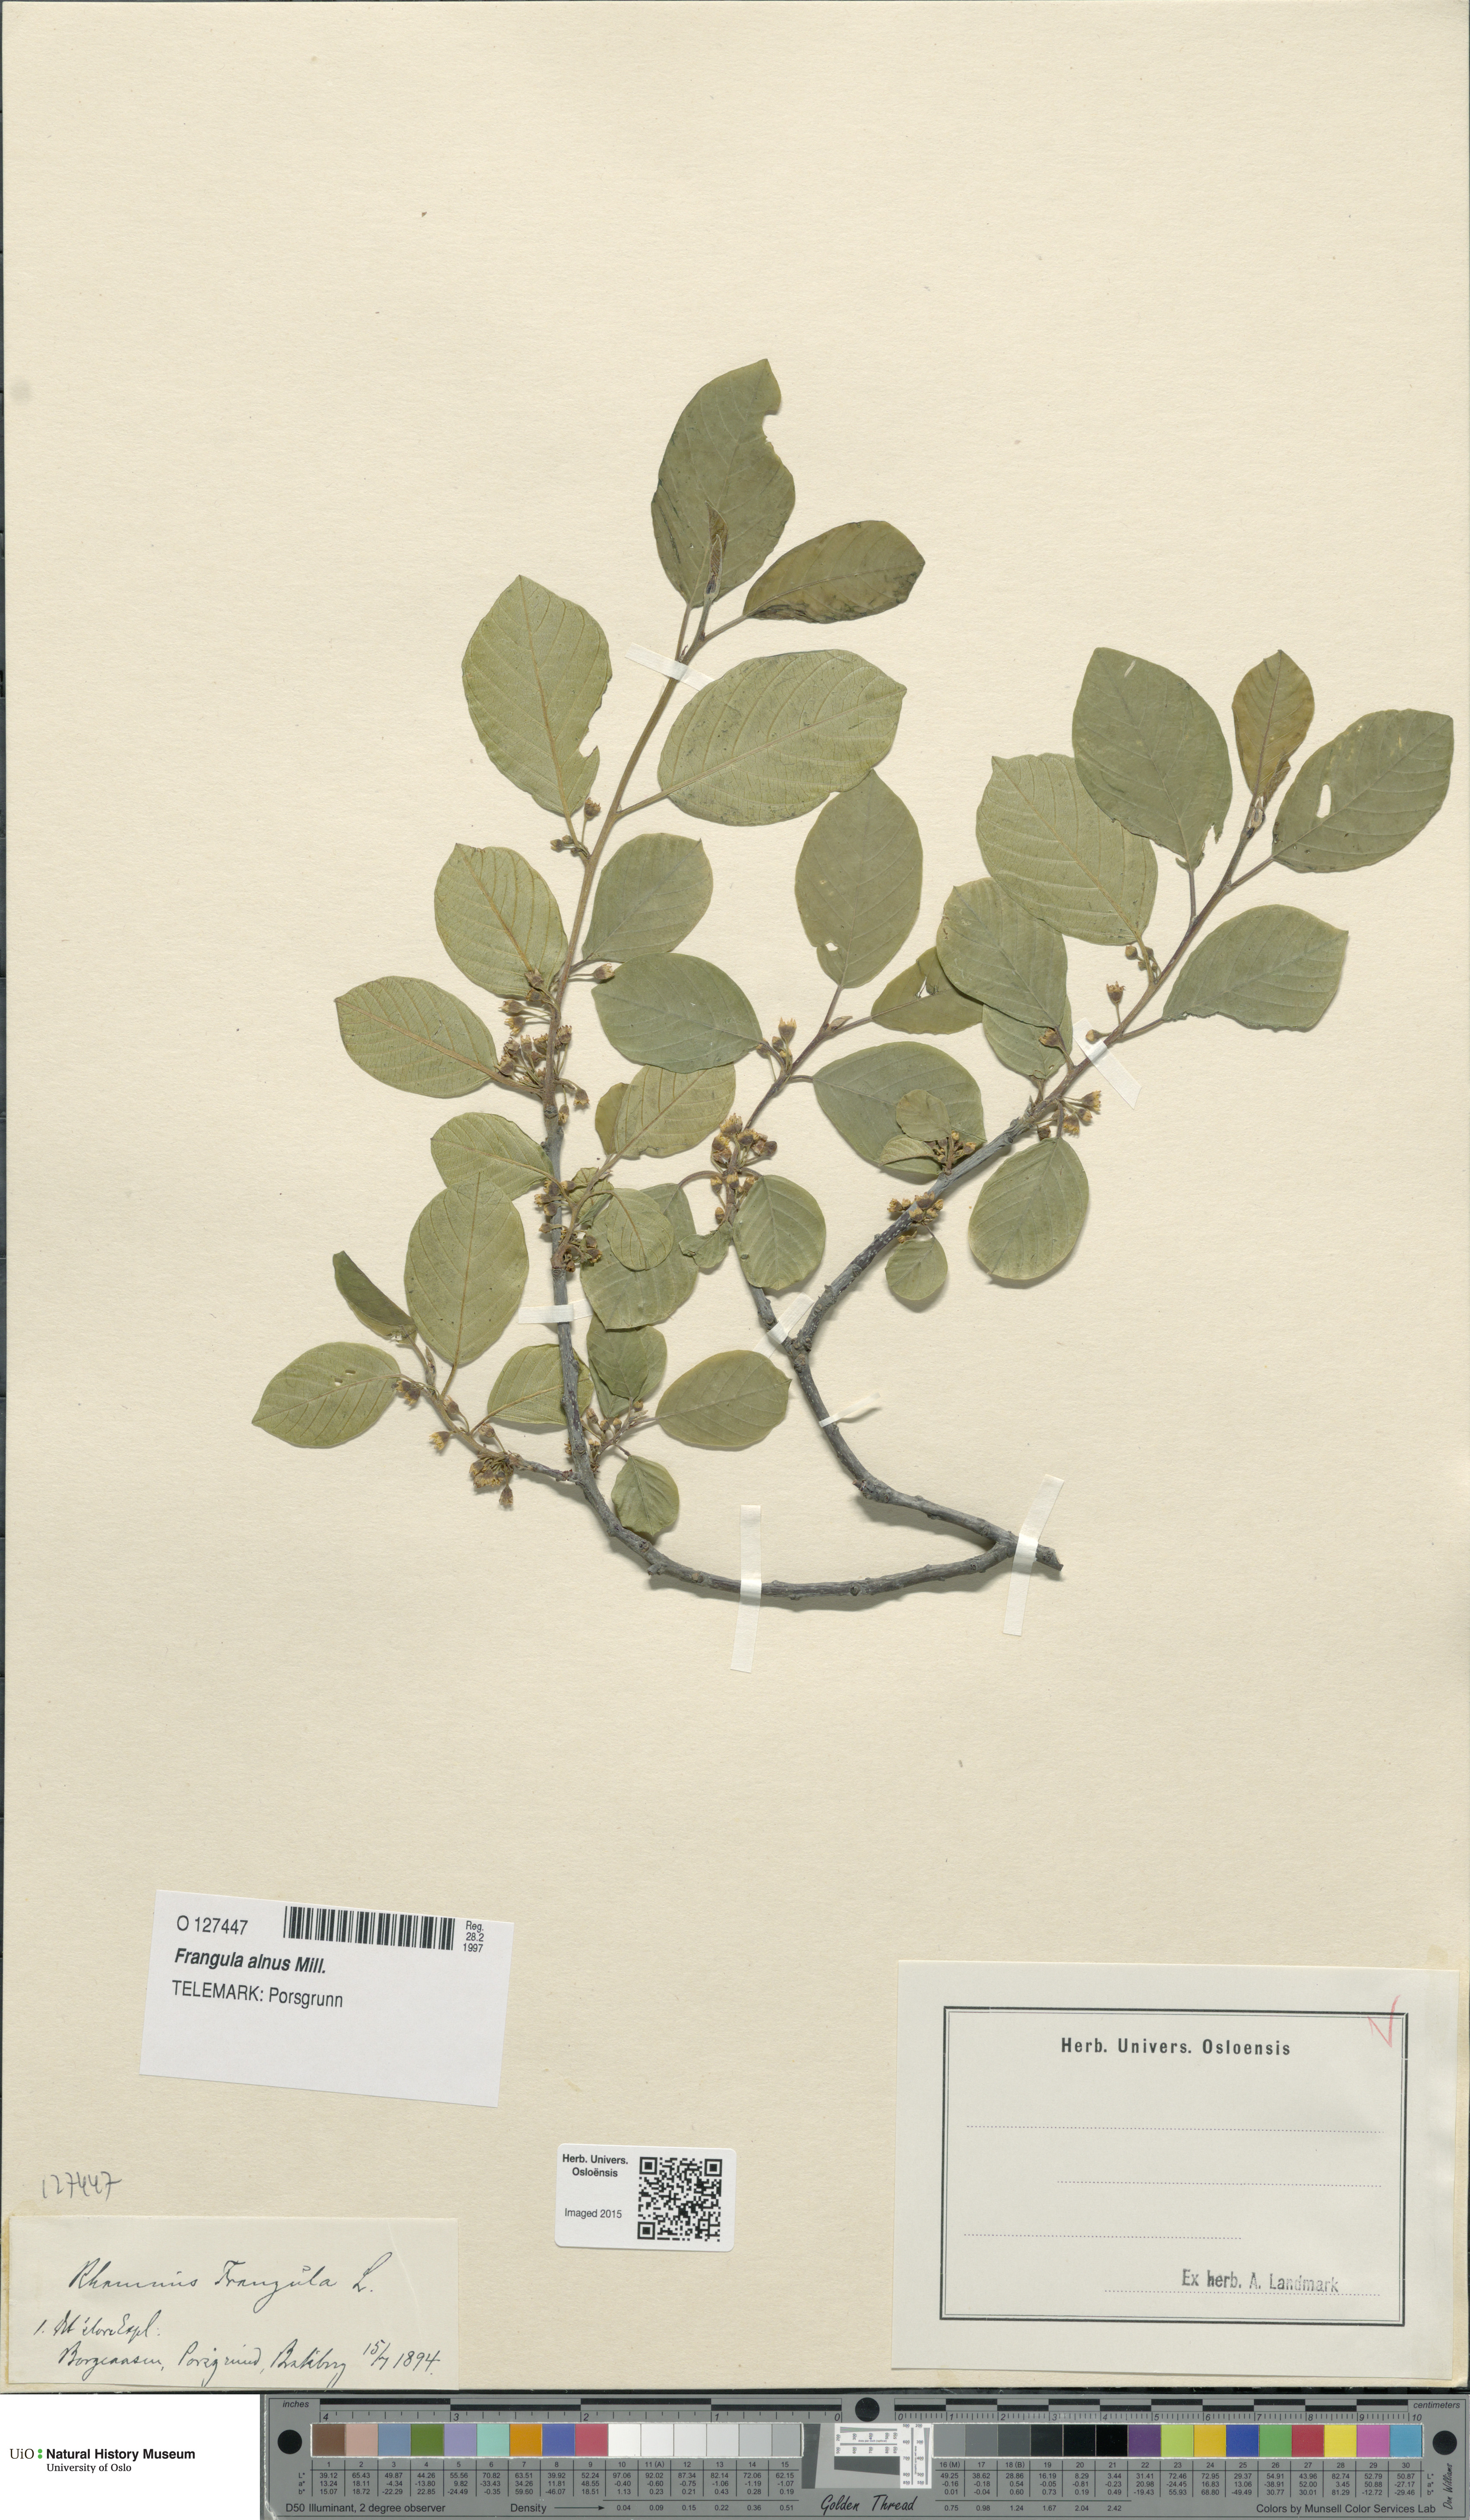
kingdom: Plantae
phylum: Tracheophyta
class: Magnoliopsida
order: Rosales
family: Rhamnaceae
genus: Frangula
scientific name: Frangula alnus
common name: Alder buckthorn
